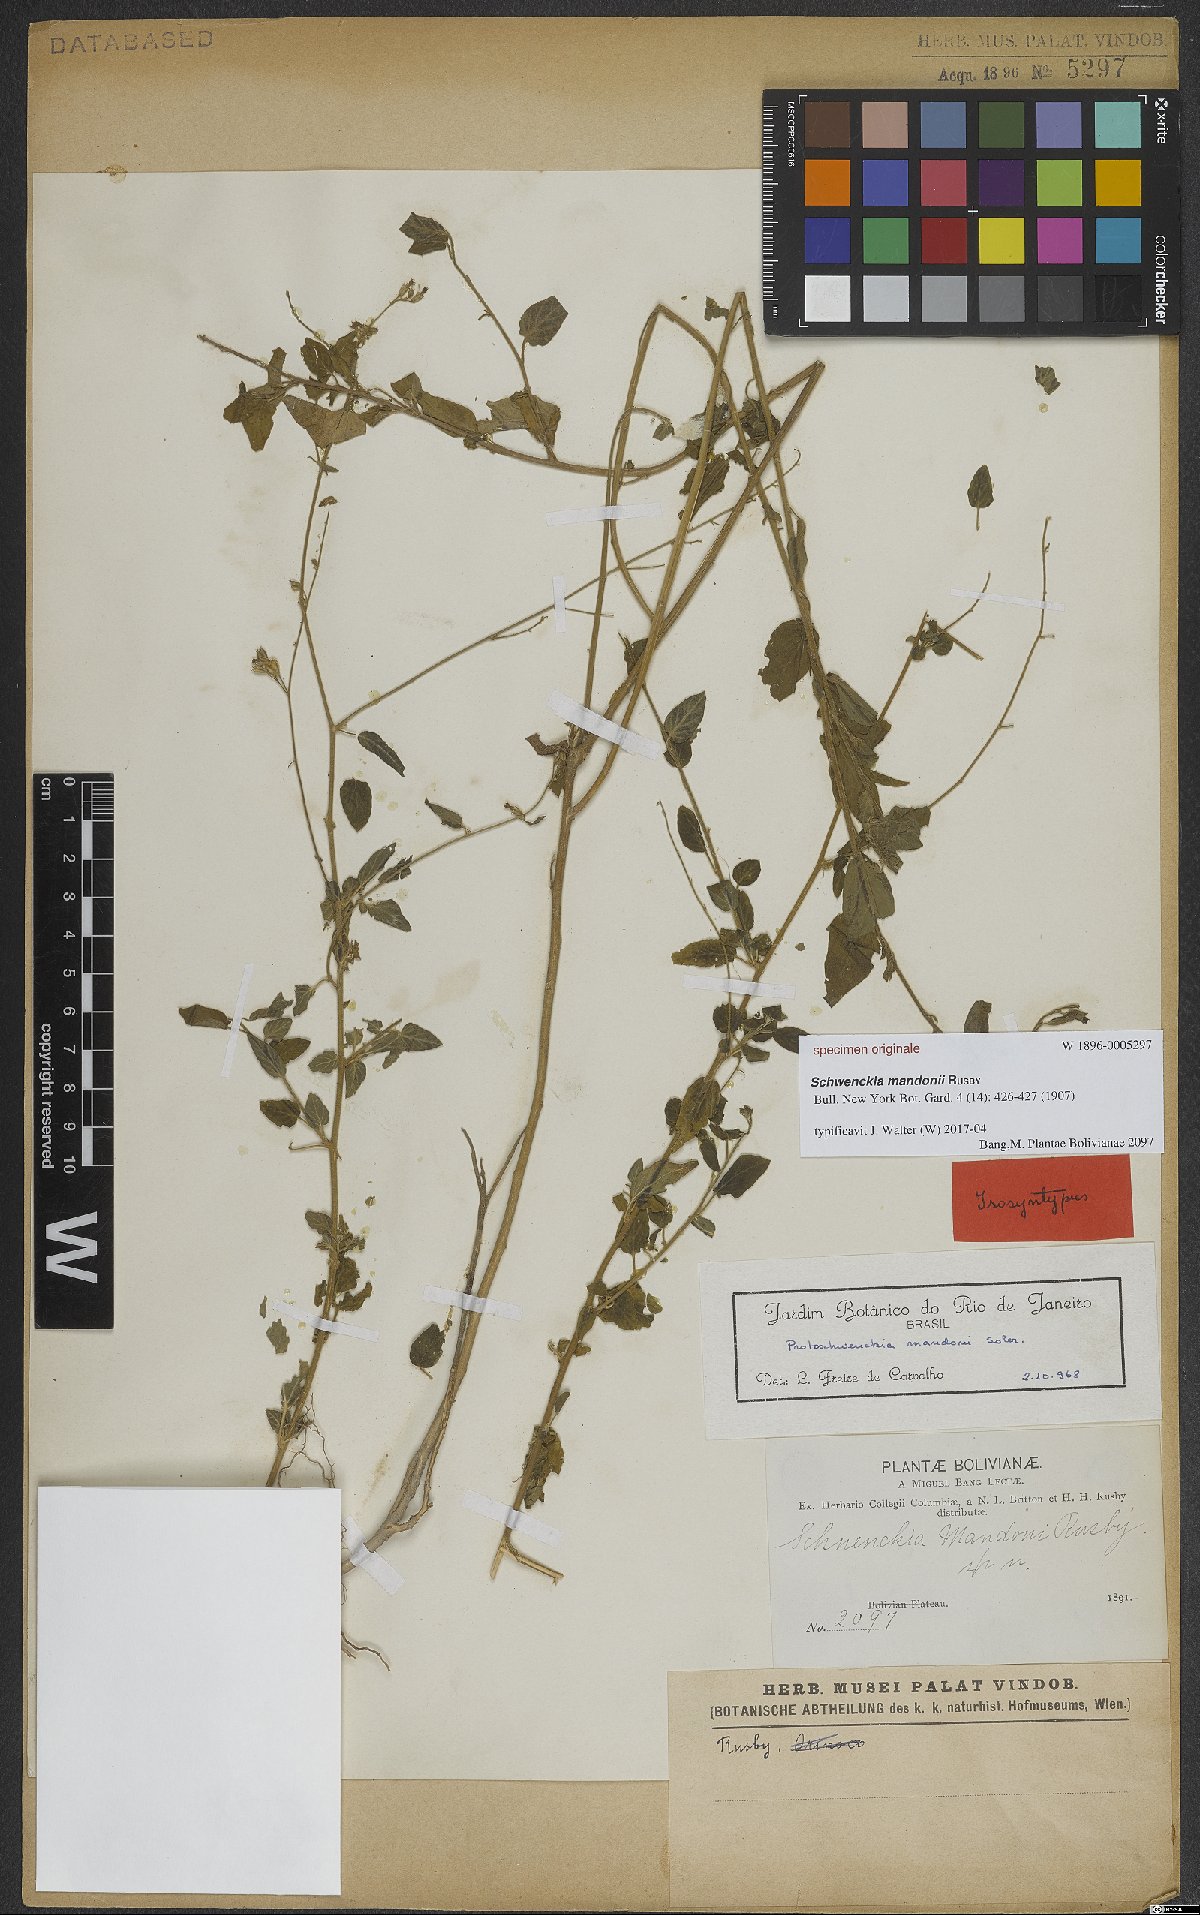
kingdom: Plantae
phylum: Tracheophyta
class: Magnoliopsida
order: Solanales
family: Solanaceae
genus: Protoschwenckia
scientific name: Protoschwenckia mandonii
